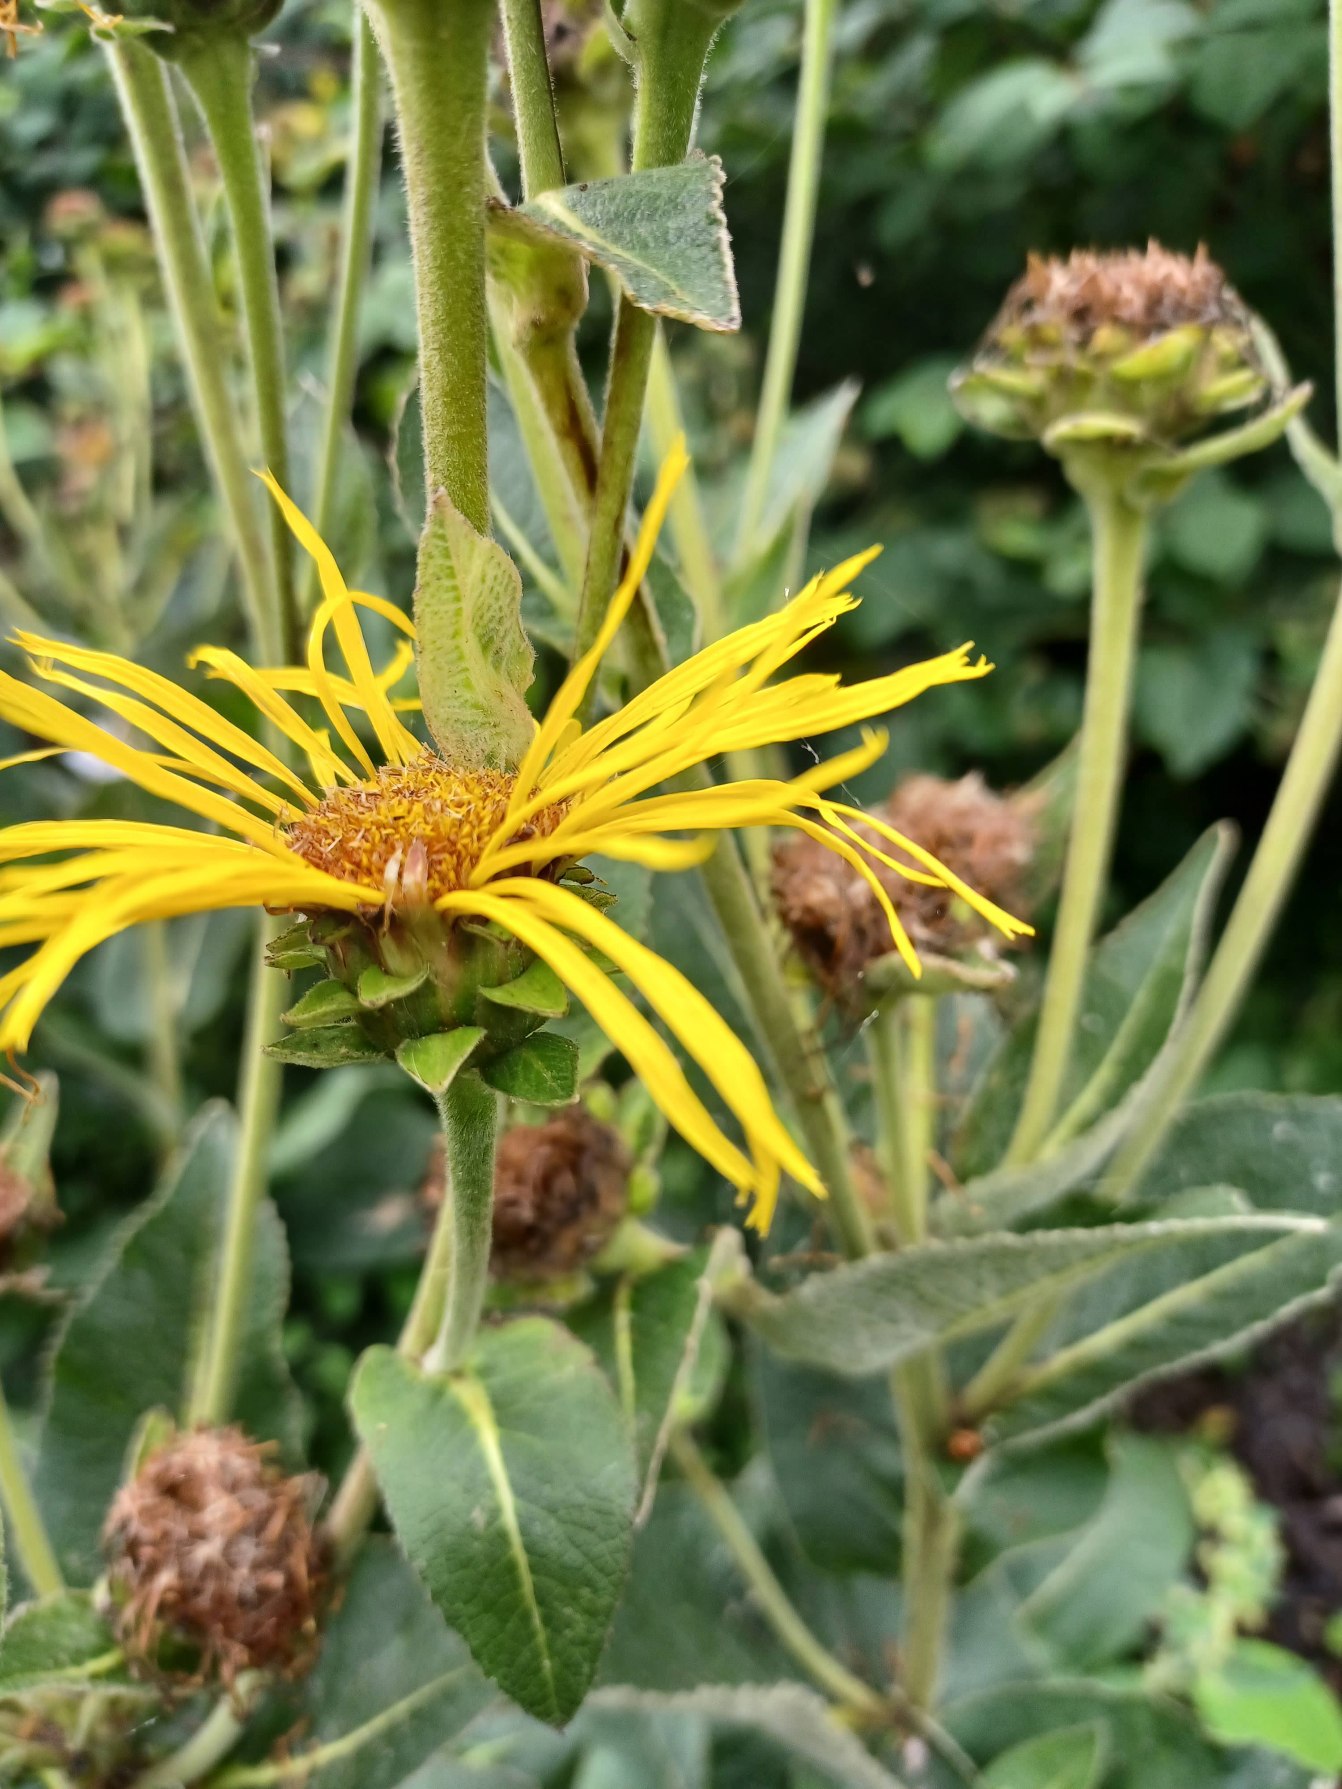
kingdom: Plantae
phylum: Tracheophyta
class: Magnoliopsida
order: Asterales
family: Asteraceae
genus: Inula
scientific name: Inula helenium
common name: Læge-alant
